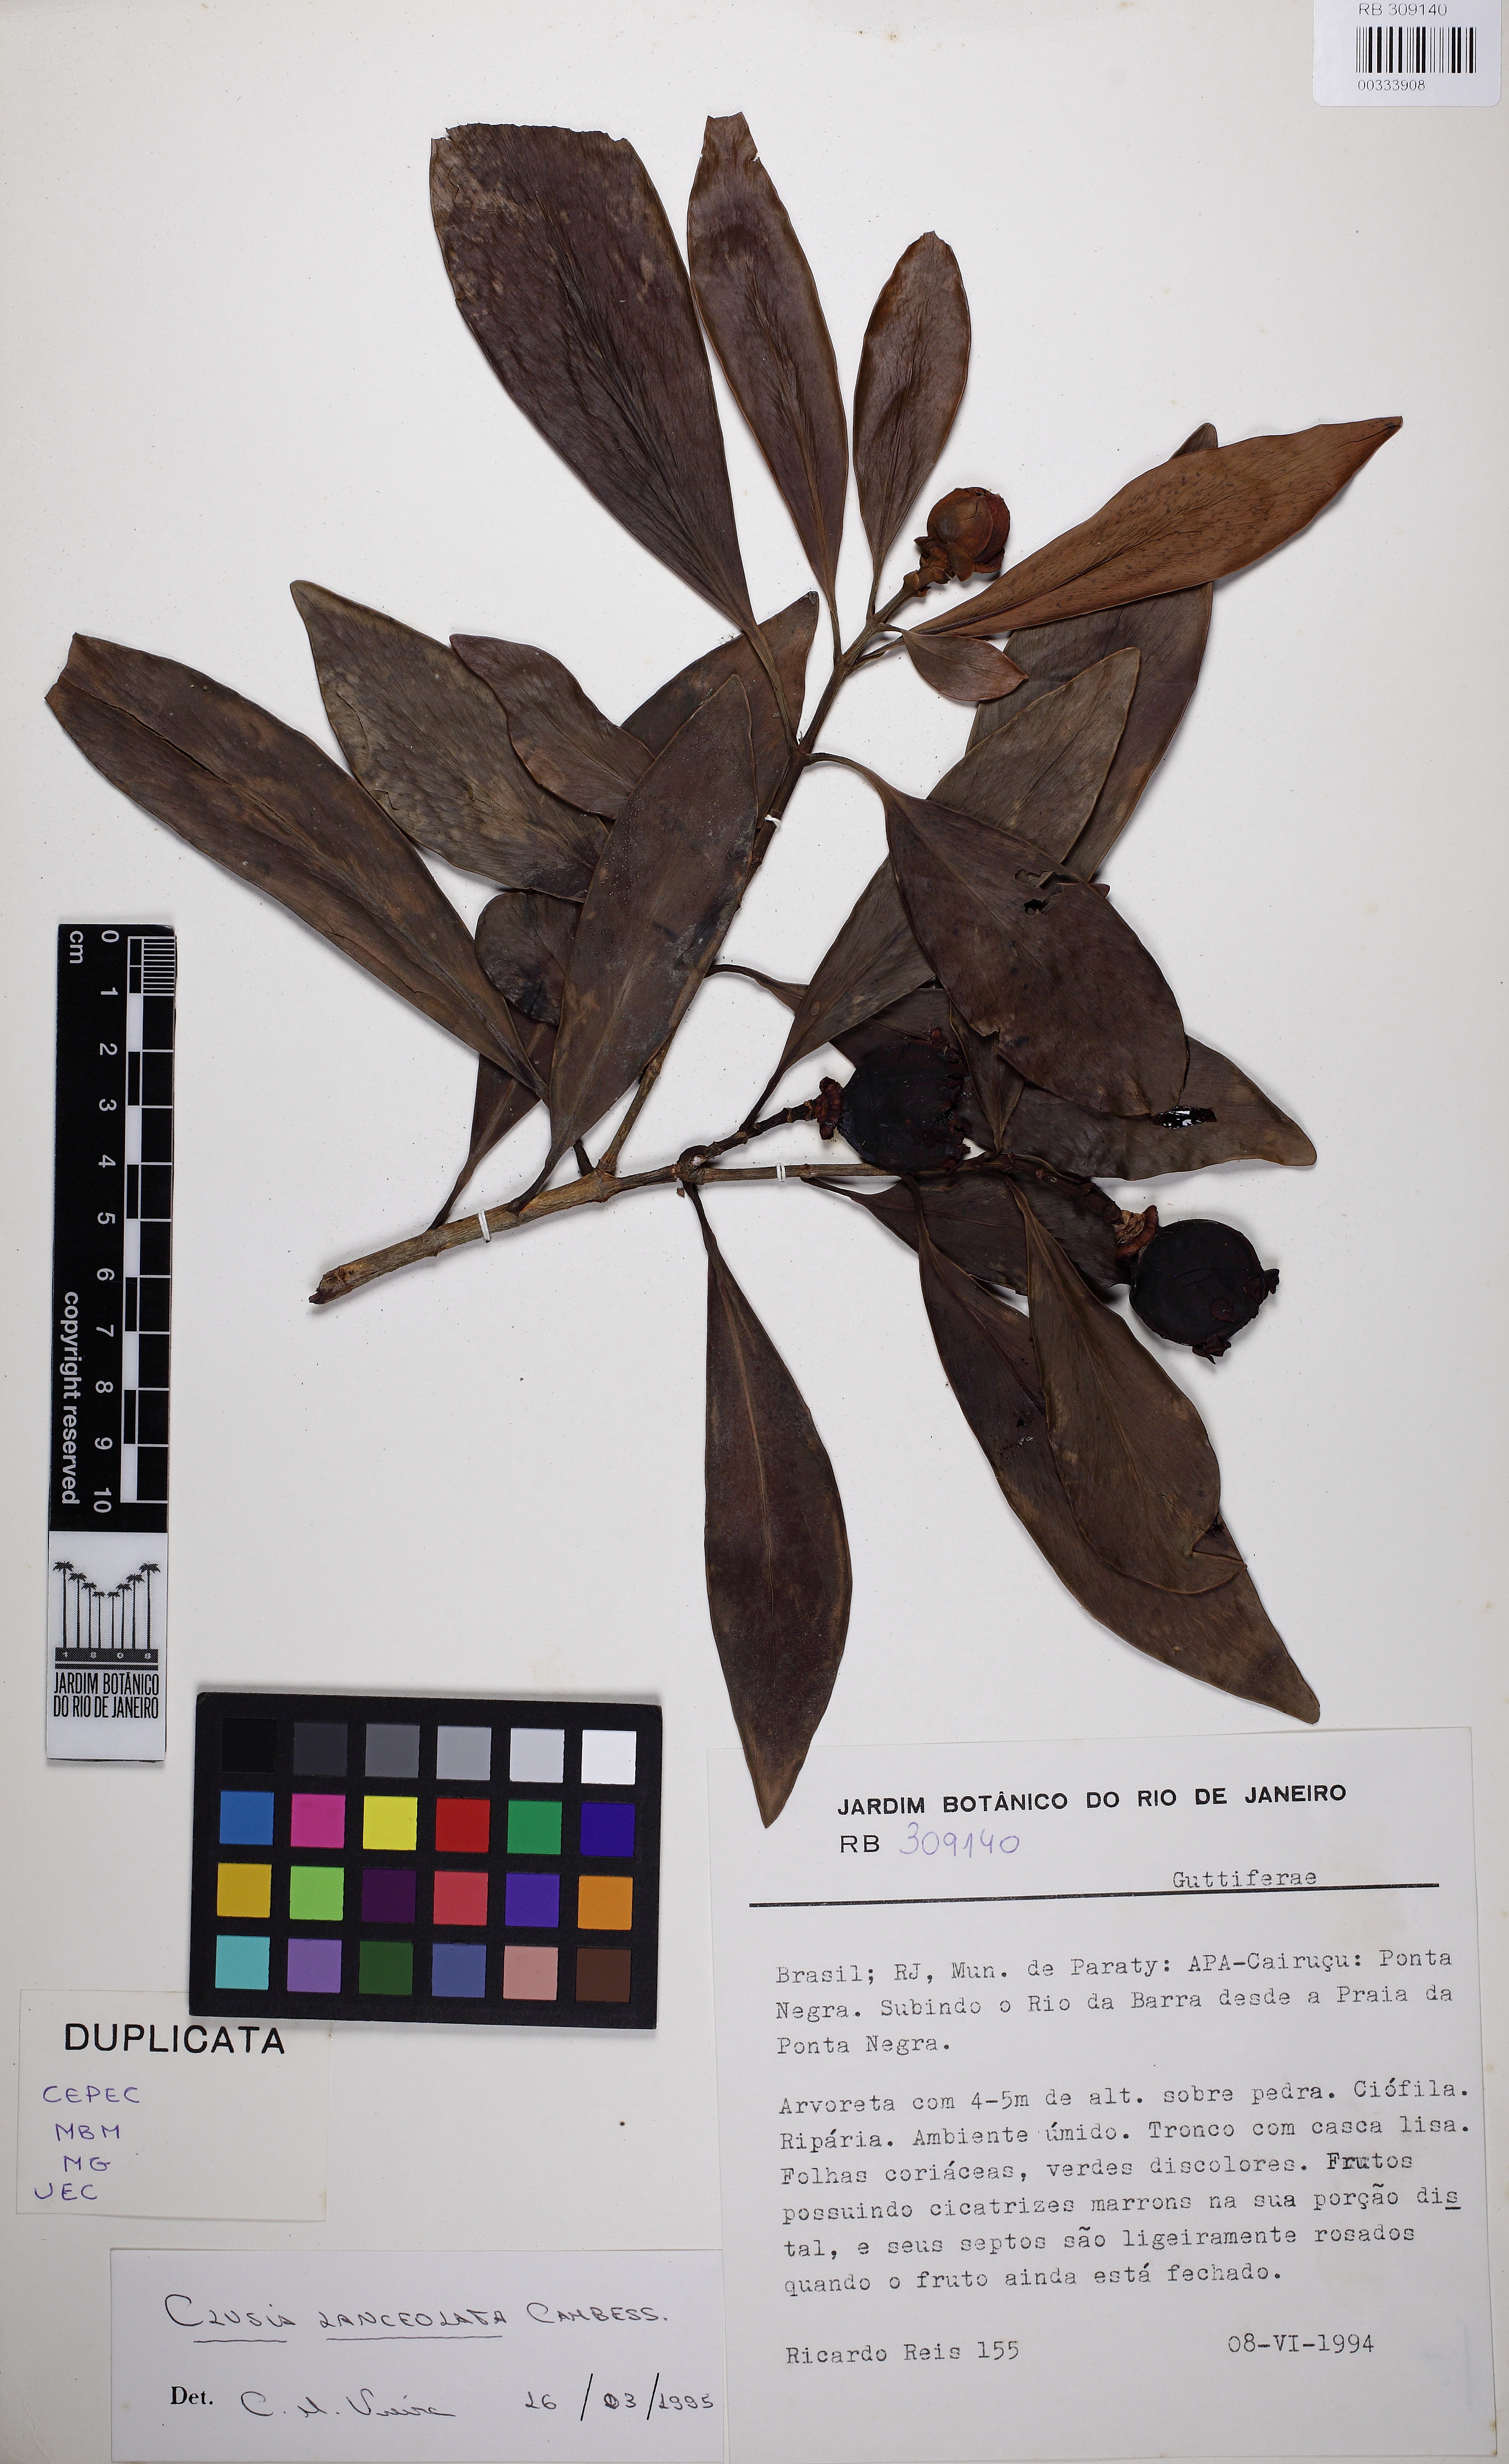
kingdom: Plantae
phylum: Tracheophyta
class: Magnoliopsida
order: Malpighiales
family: Clusiaceae
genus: Clusia
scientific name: Clusia lanceolata
